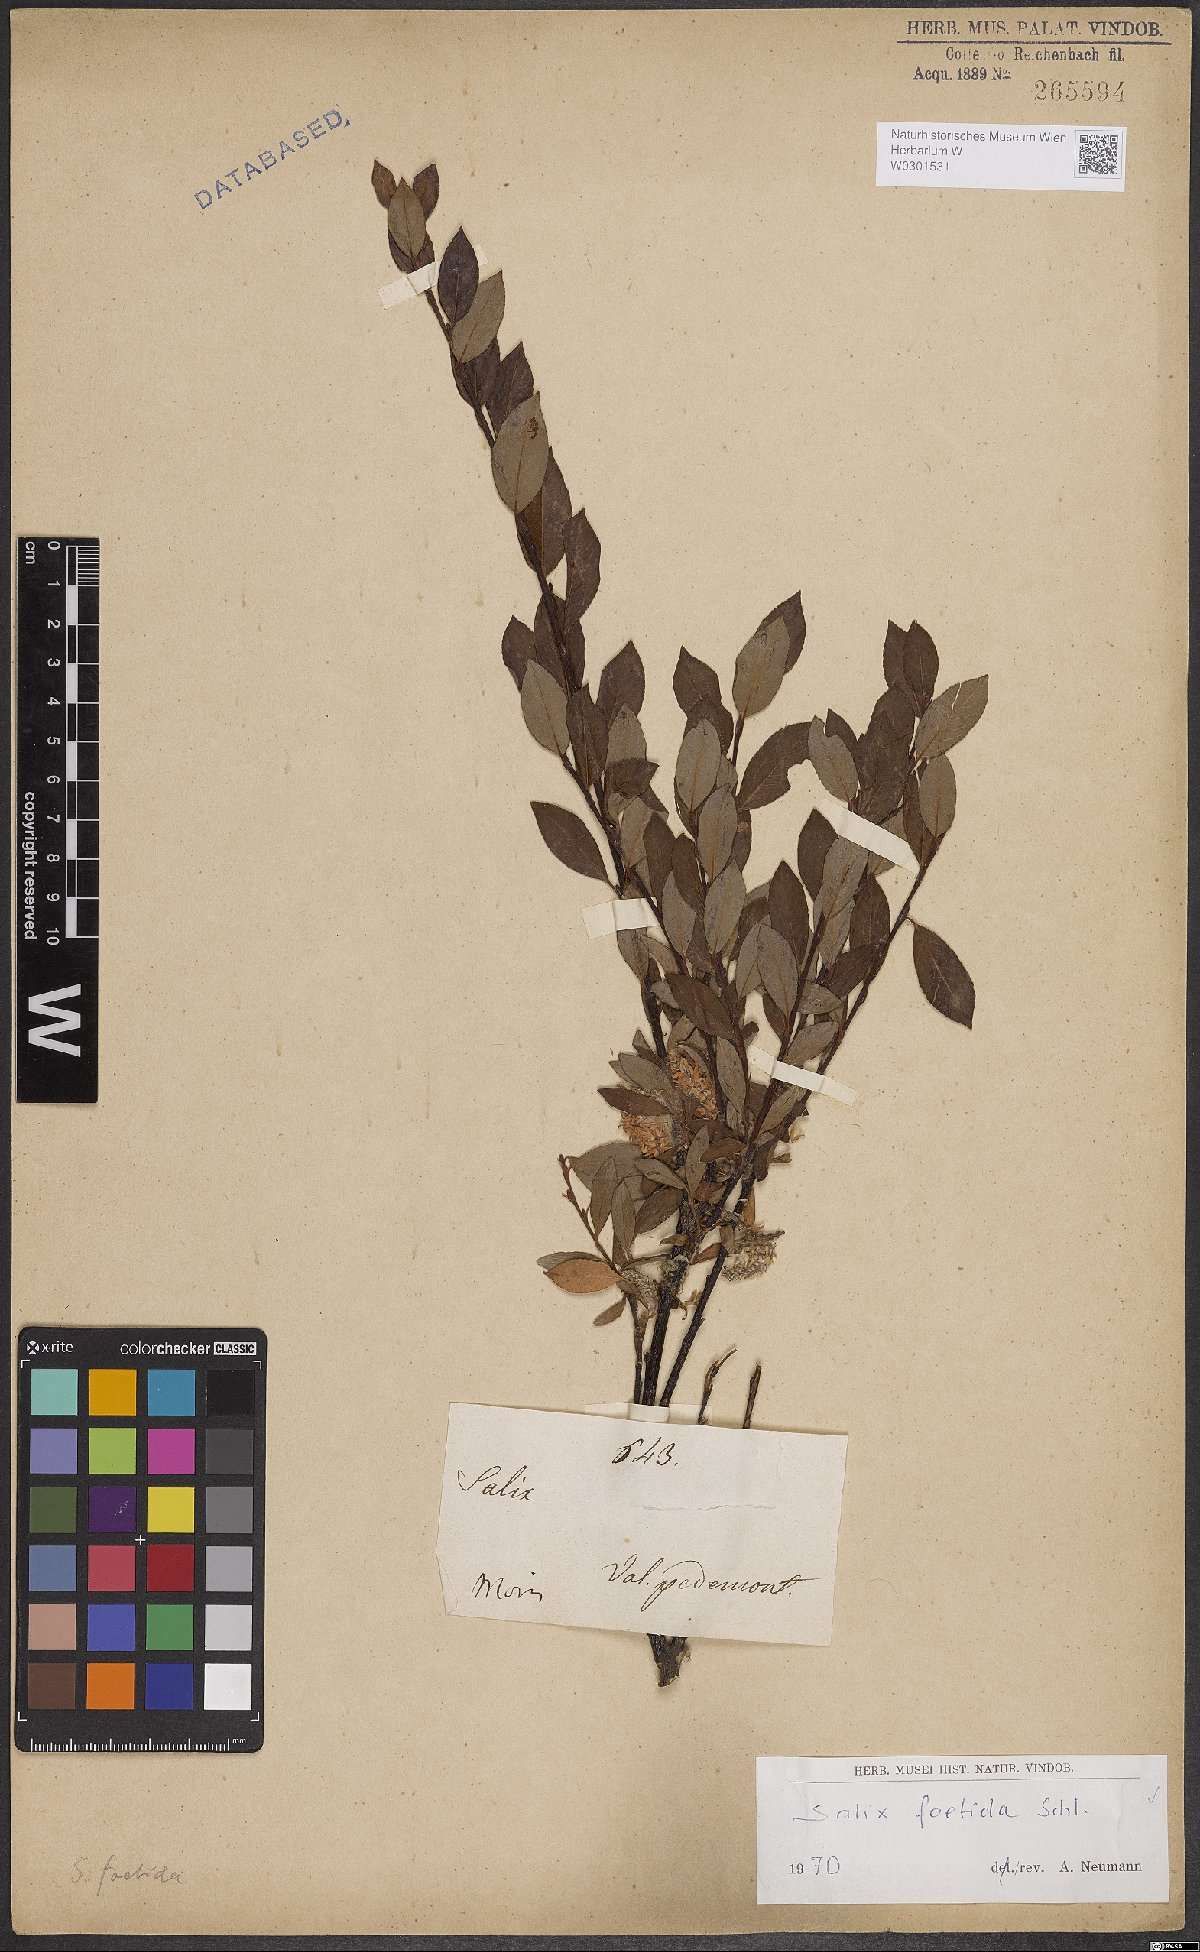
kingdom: Plantae
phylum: Tracheophyta
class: Magnoliopsida
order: Malpighiales
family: Salicaceae
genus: Salix
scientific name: Salix foetida
